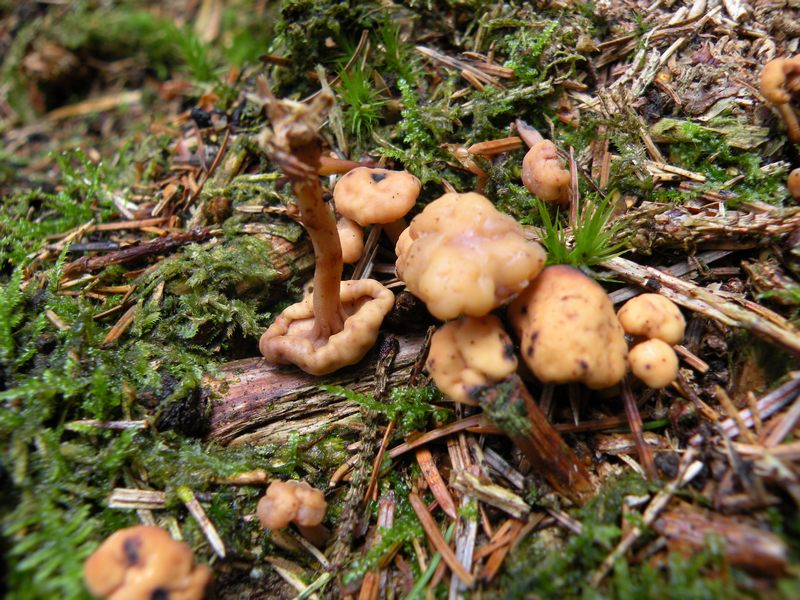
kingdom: Fungi
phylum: Ascomycota
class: Leotiomycetes
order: Rhytismatales
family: Cudoniaceae
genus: Cudonia
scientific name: Cudonia circinans
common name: hekserings-hjelmmorkel
